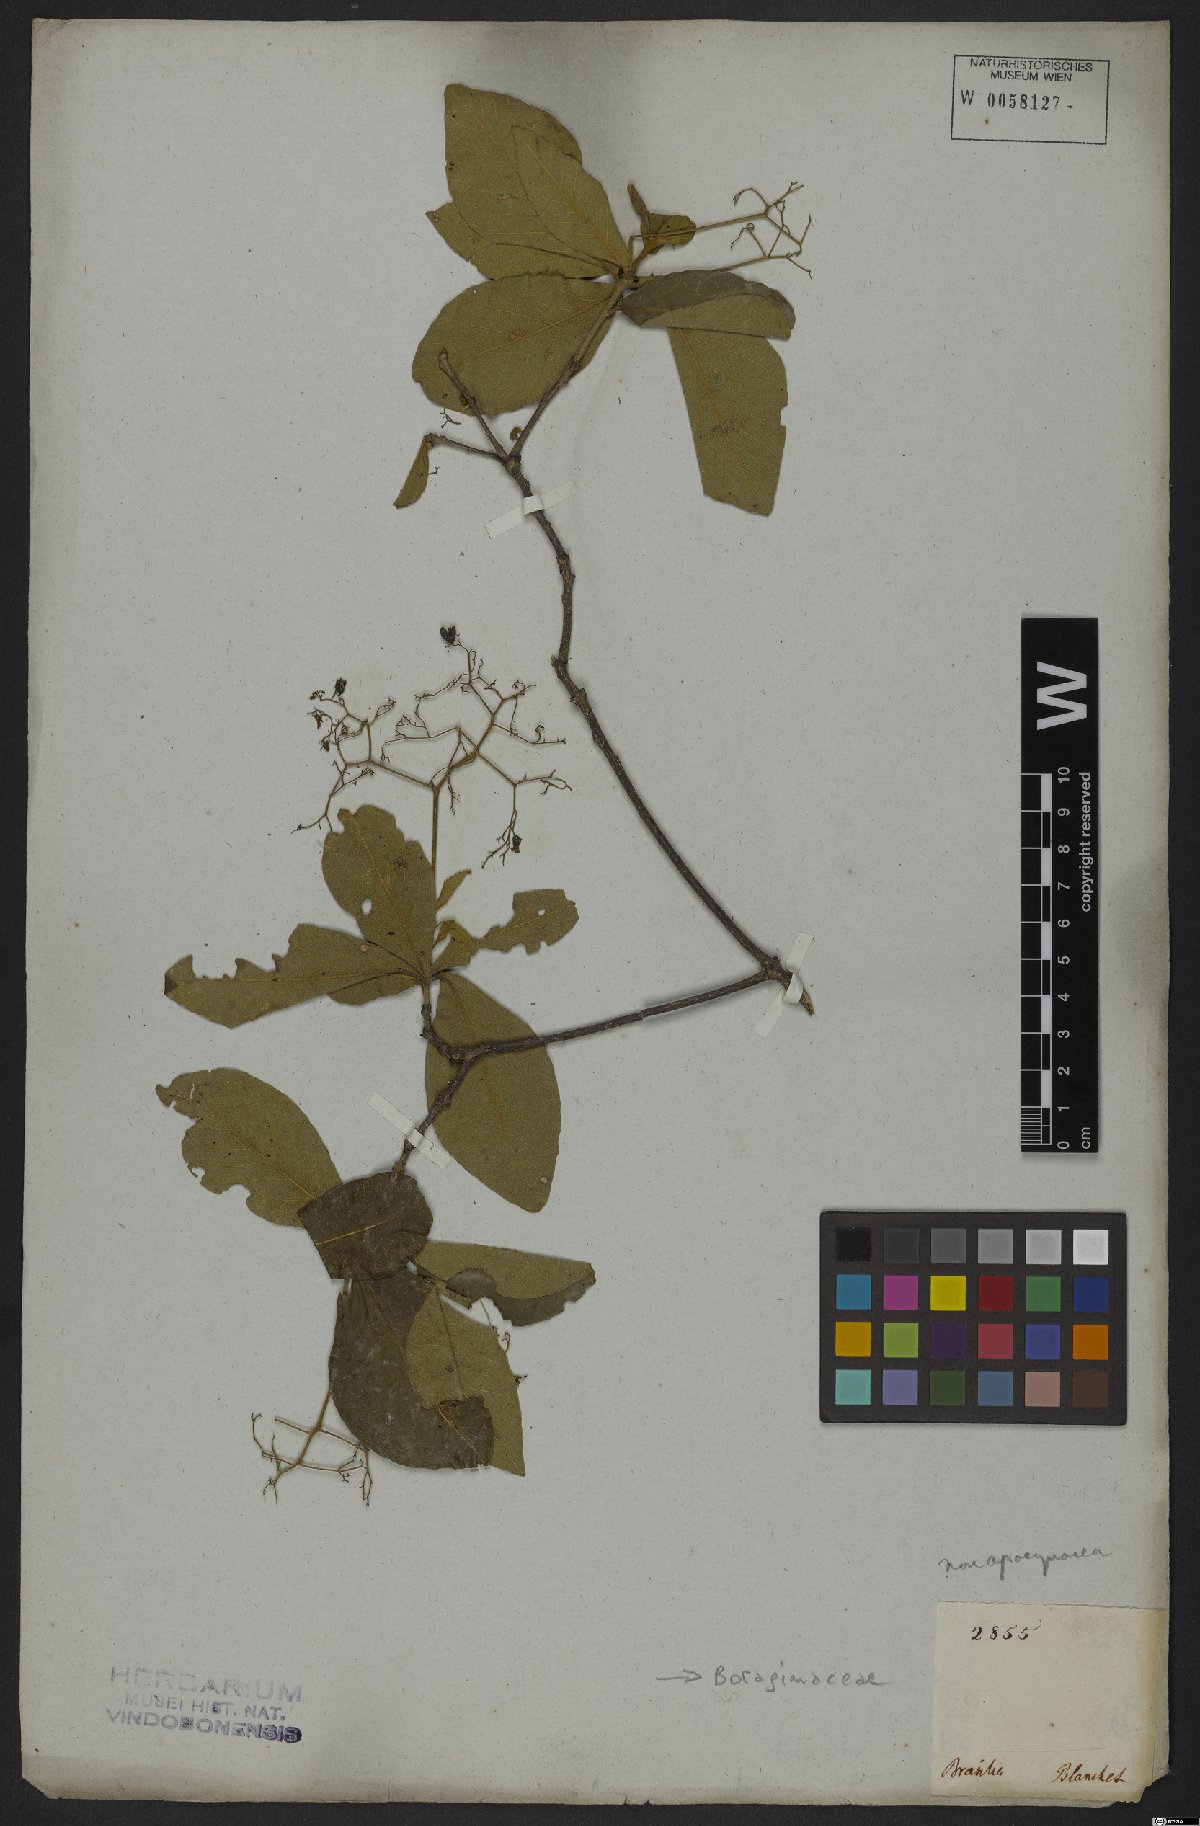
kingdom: Plantae
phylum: Tracheophyta
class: Magnoliopsida
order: Boraginales
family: Boraginaceae
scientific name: Boraginaceae
